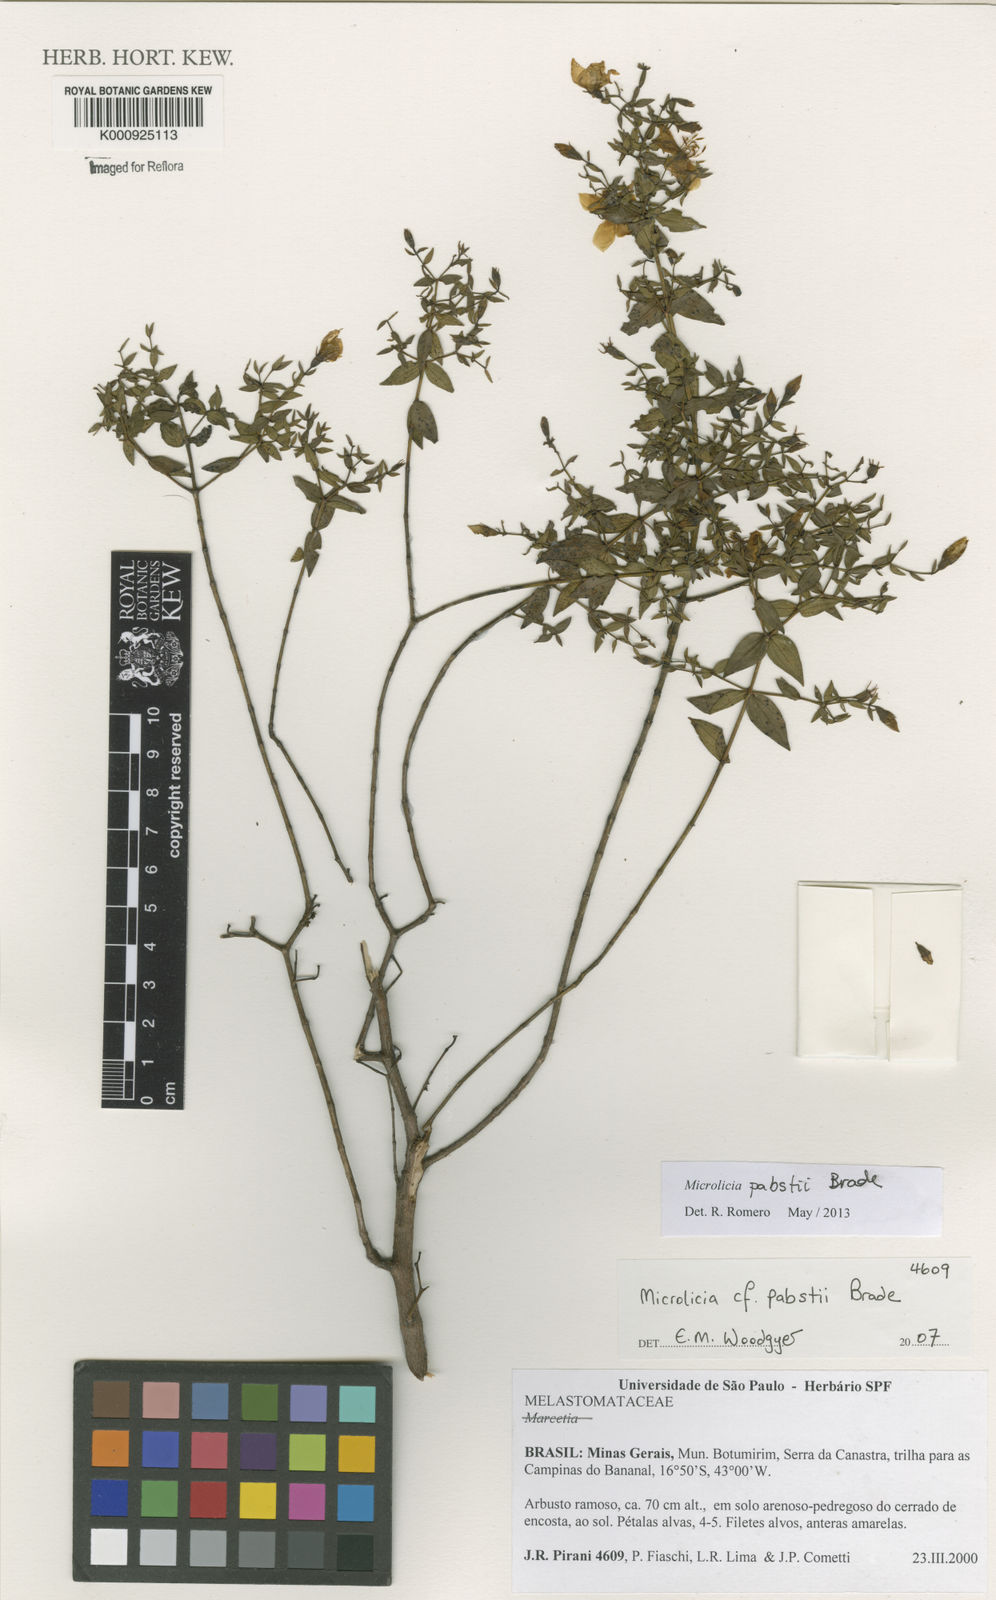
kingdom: Plantae
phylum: Tracheophyta
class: Magnoliopsida
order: Myrtales
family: Melastomataceae
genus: Microlicia
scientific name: Microlicia pabstii
